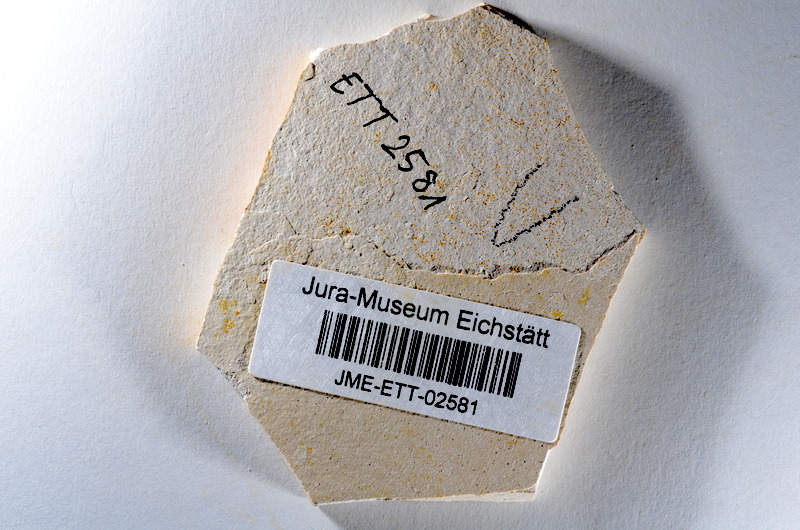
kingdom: Animalia
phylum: Chordata
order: Salmoniformes
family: Orthogonikleithridae
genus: Orthogonikleithrus
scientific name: Orthogonikleithrus hoelli
